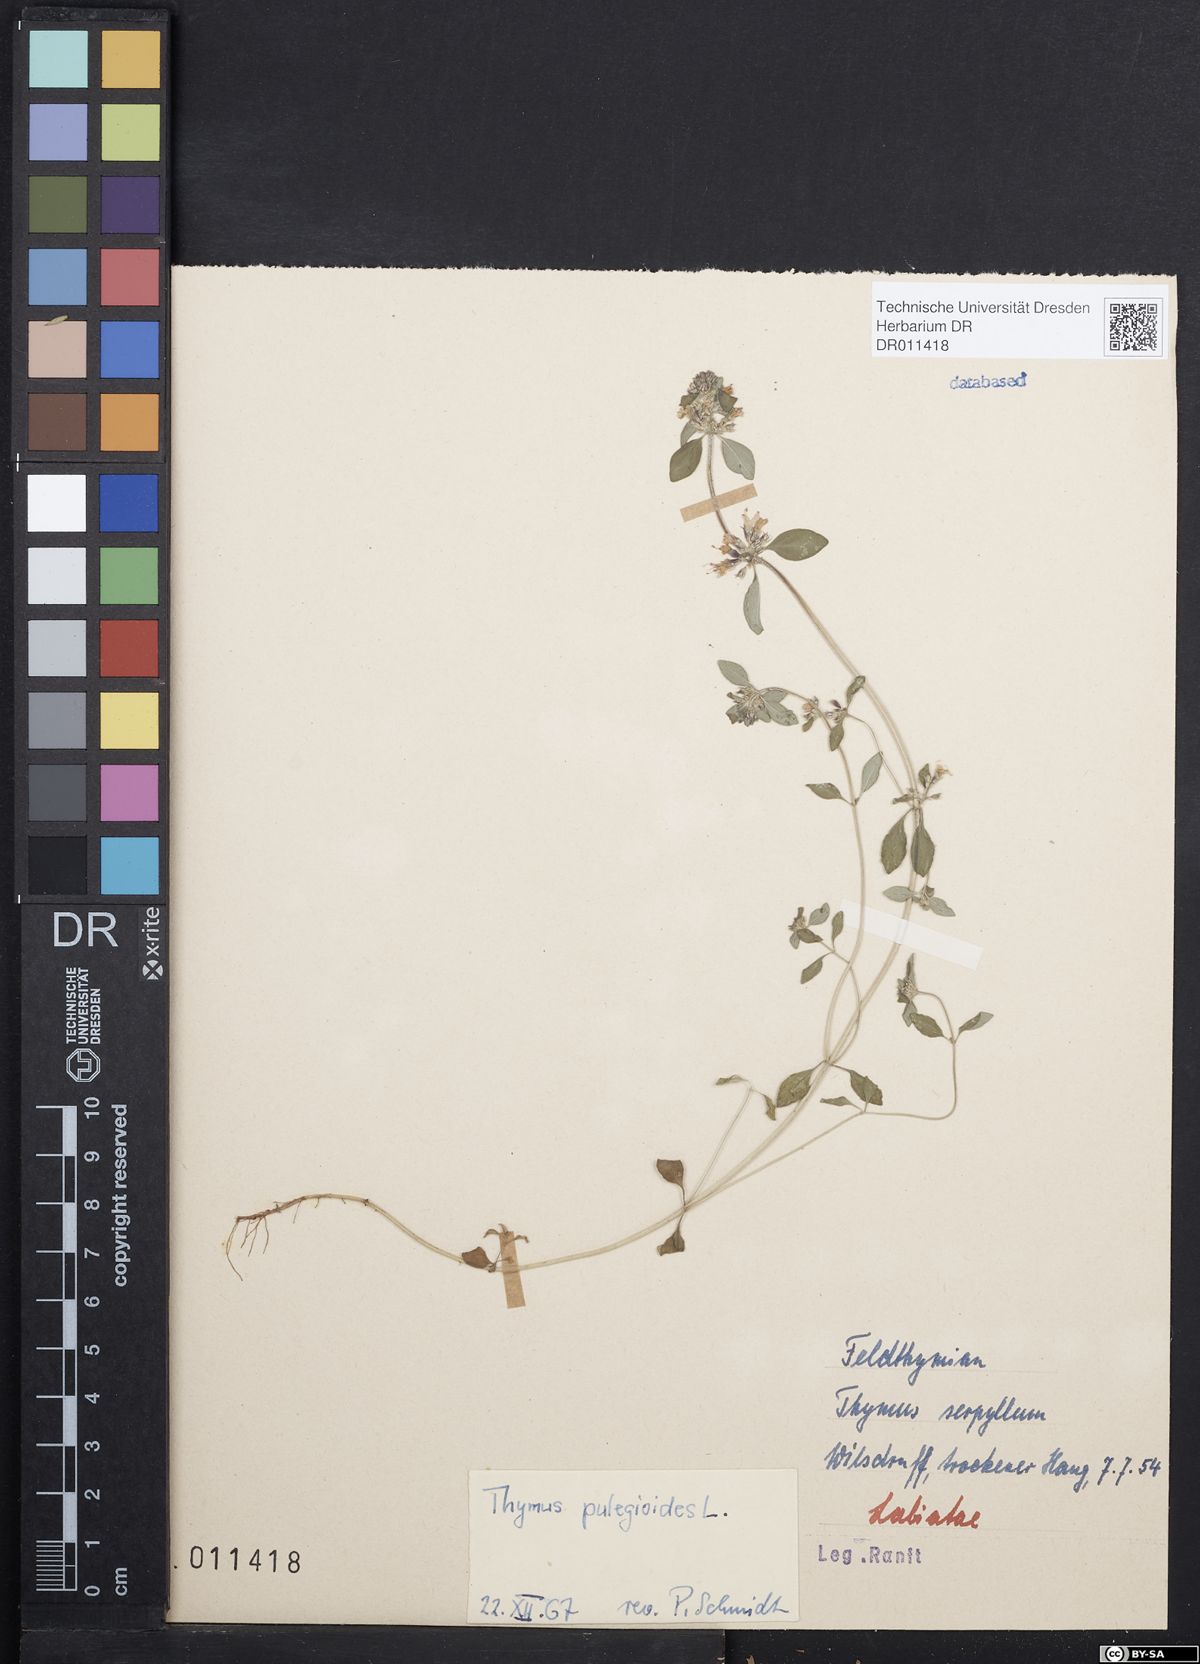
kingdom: Plantae
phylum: Tracheophyta
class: Magnoliopsida
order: Lamiales
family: Lamiaceae
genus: Thymus
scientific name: Thymus pulegioides
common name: Large thyme
